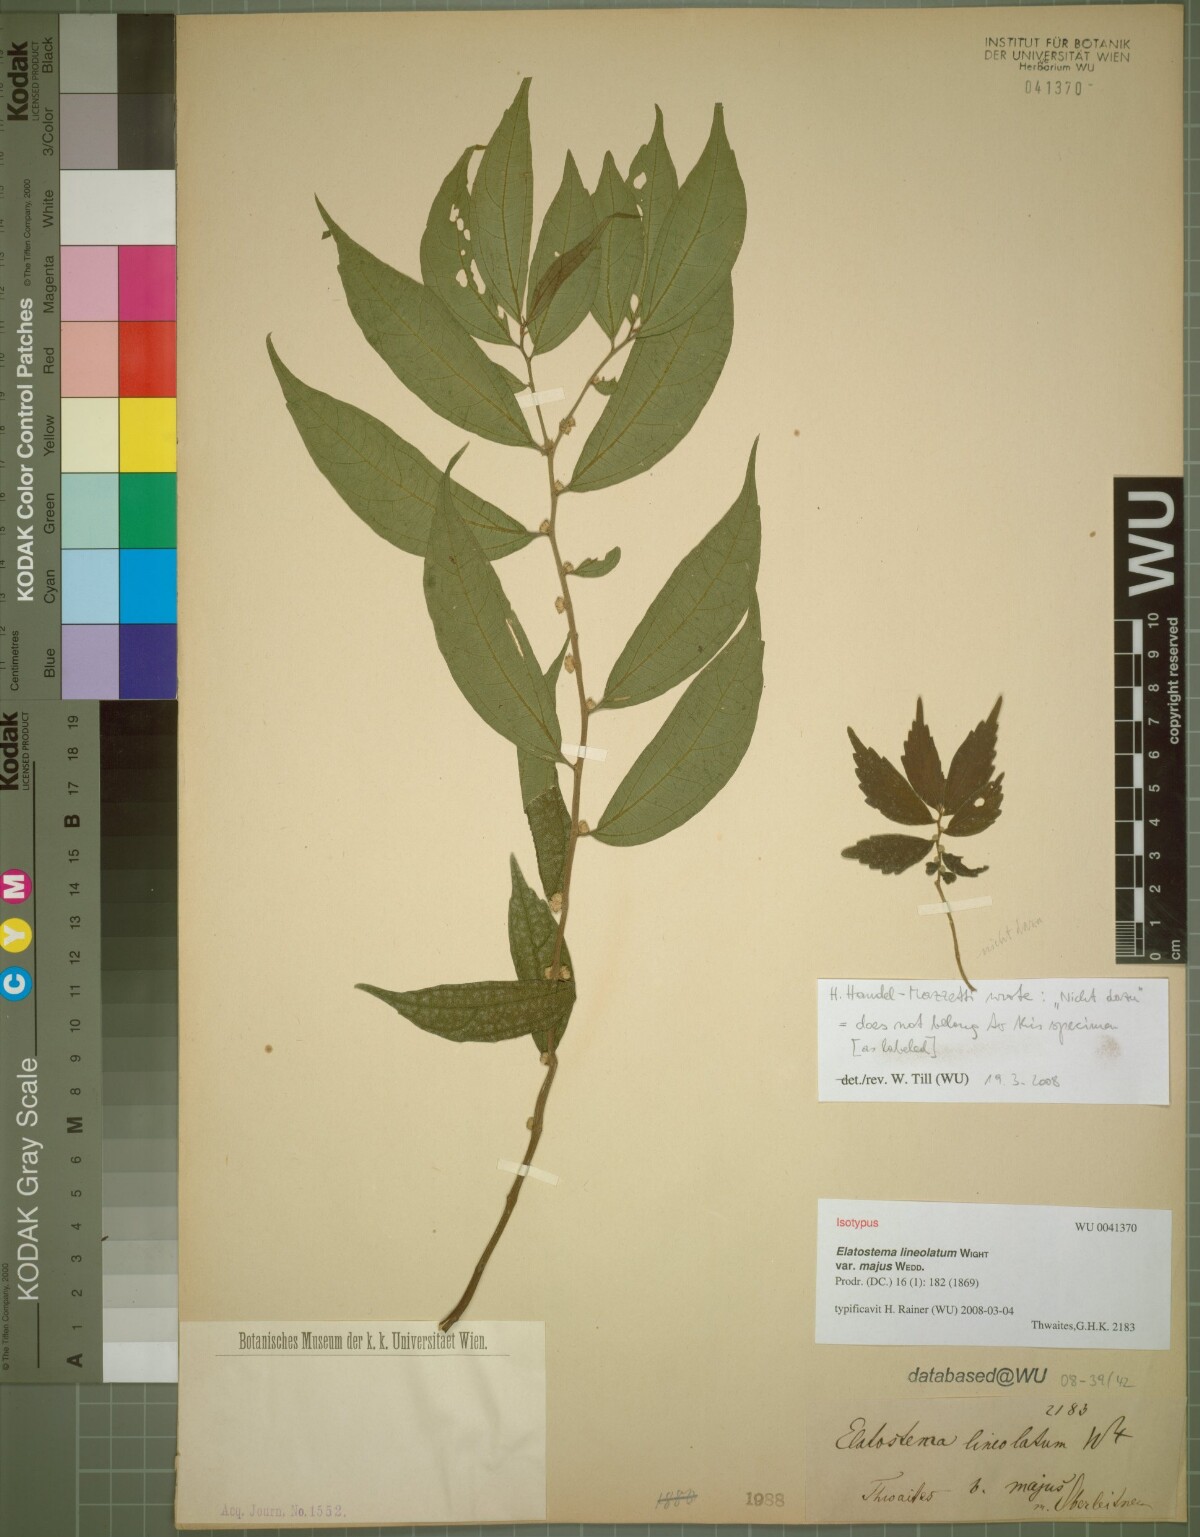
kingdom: Plantae
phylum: Tracheophyta
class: Magnoliopsida
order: Rosales
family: Urticaceae
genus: Elatostema
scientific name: Elatostema lineolatum
